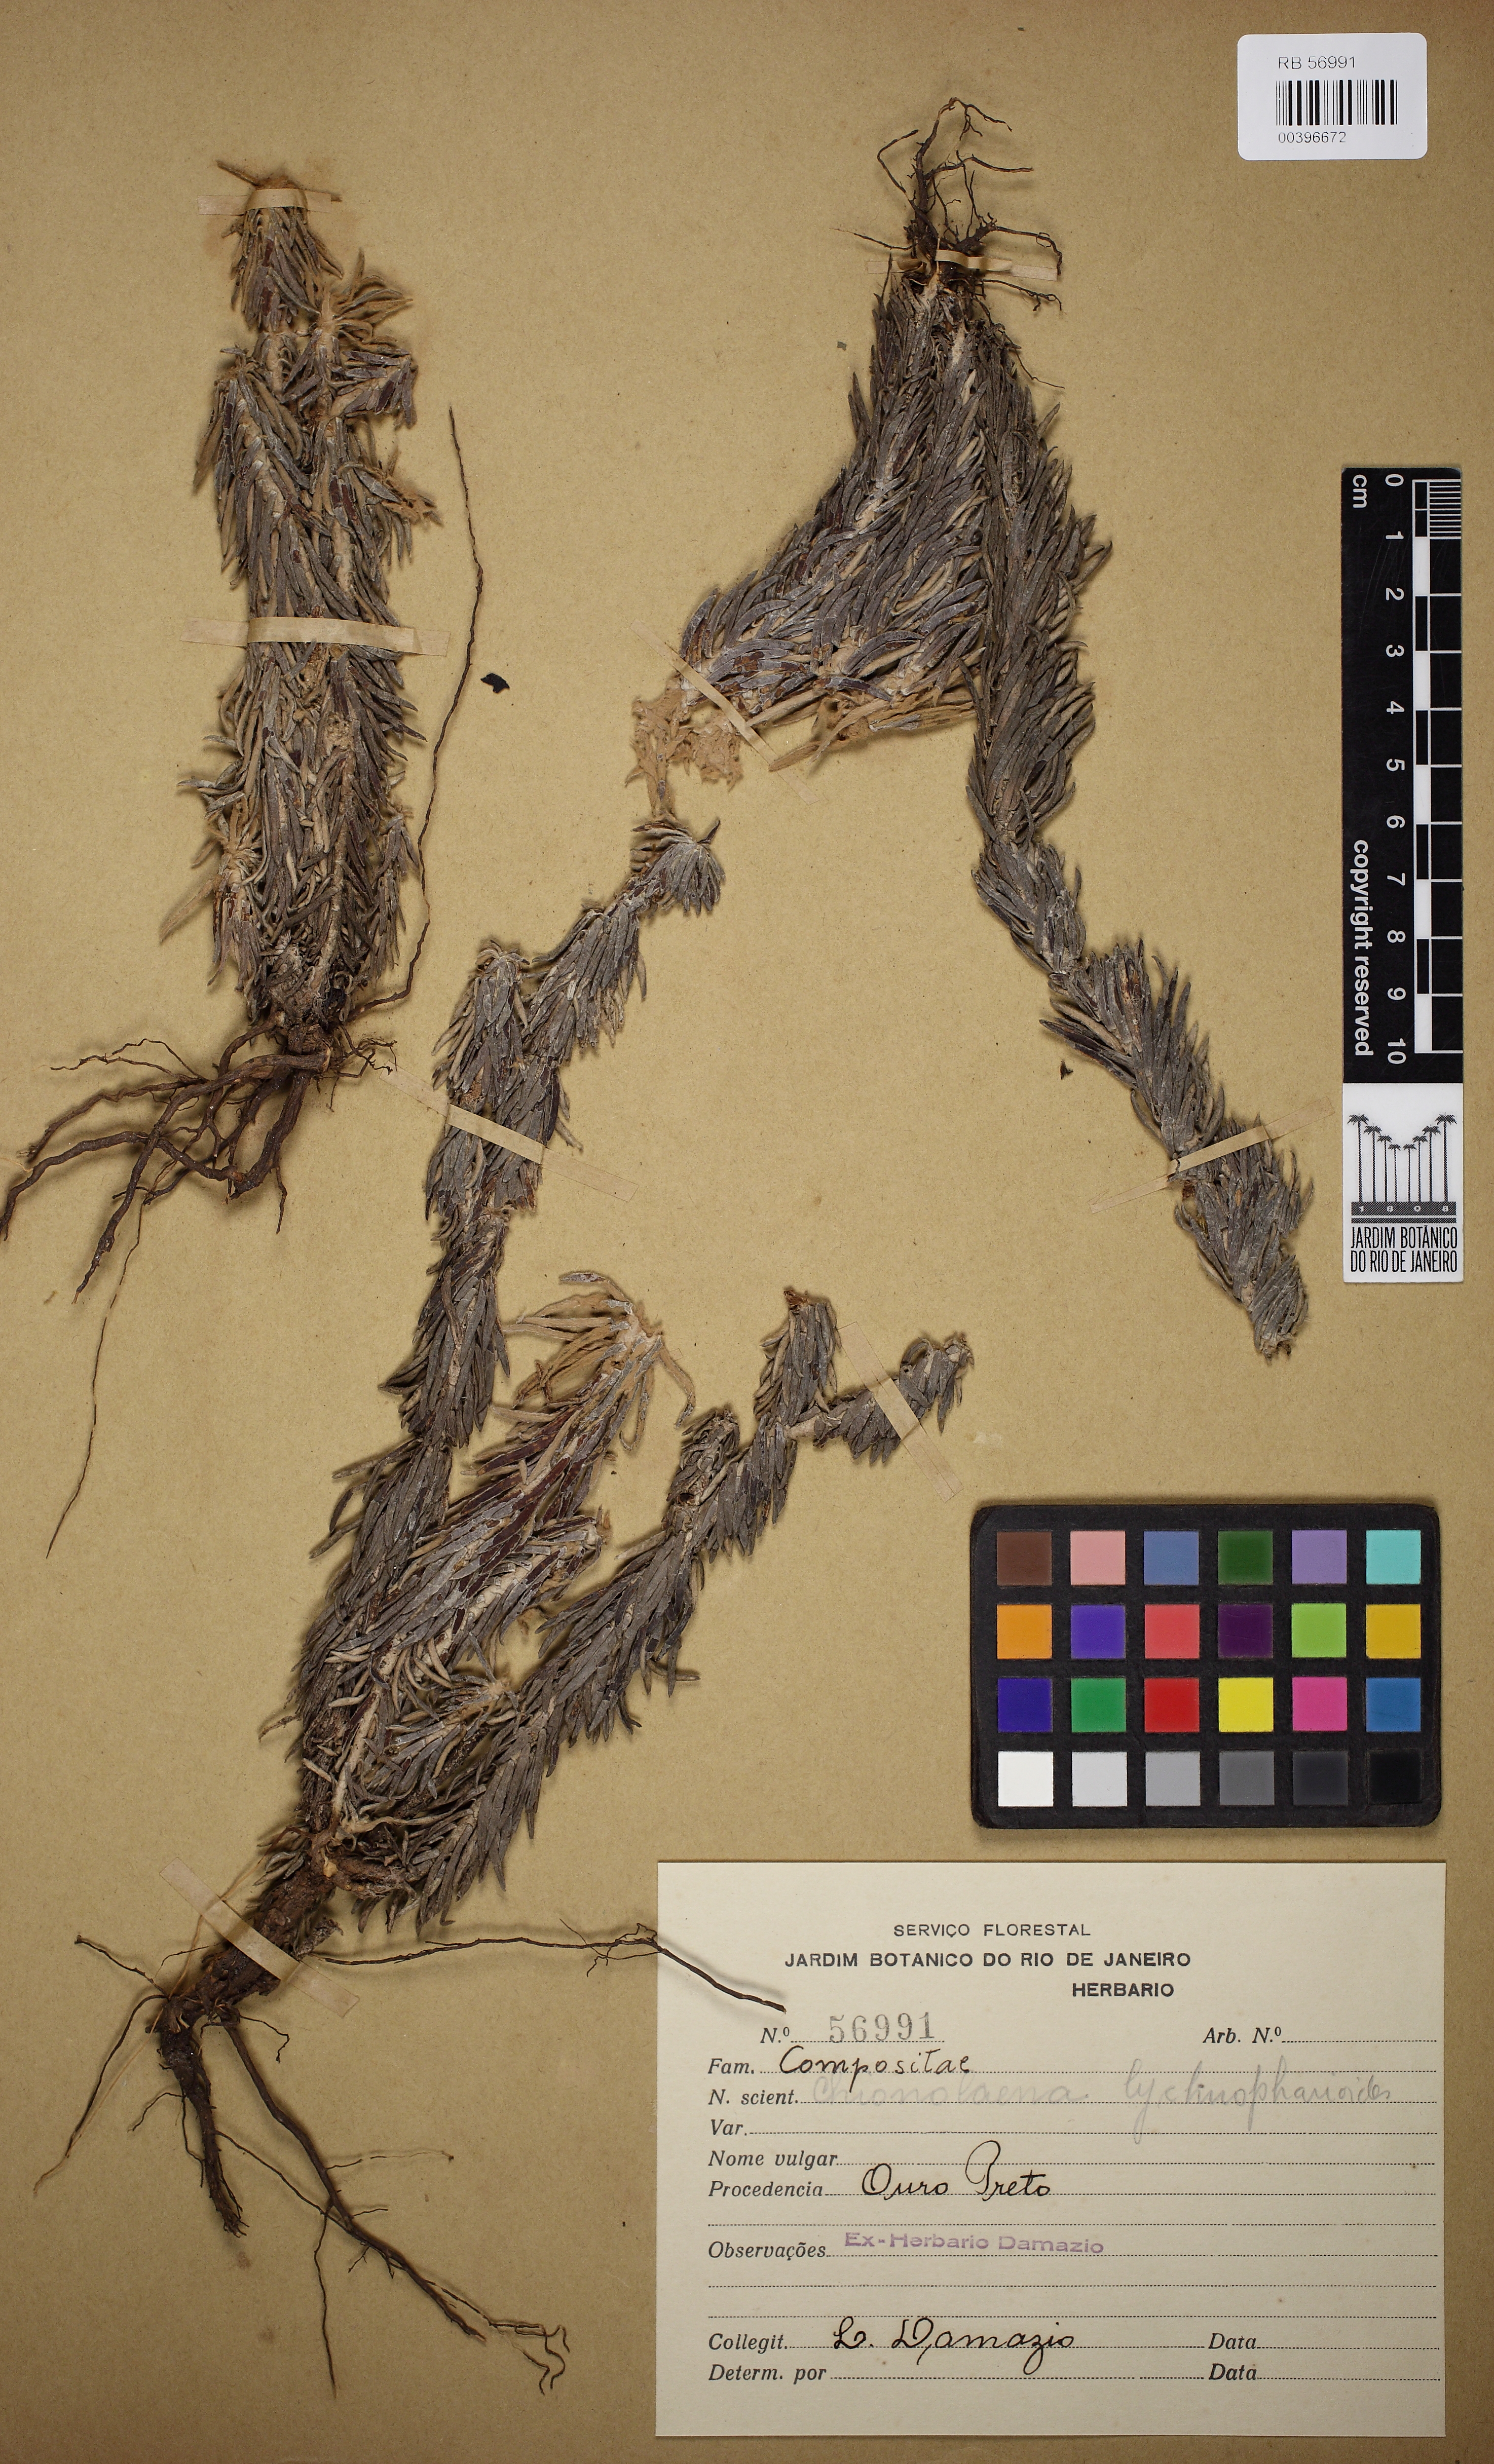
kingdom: Plantae
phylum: Tracheophyta
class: Magnoliopsida
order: Asterales
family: Asteraceae
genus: Chionolaena
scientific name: Chionolaena lychnophorioides
